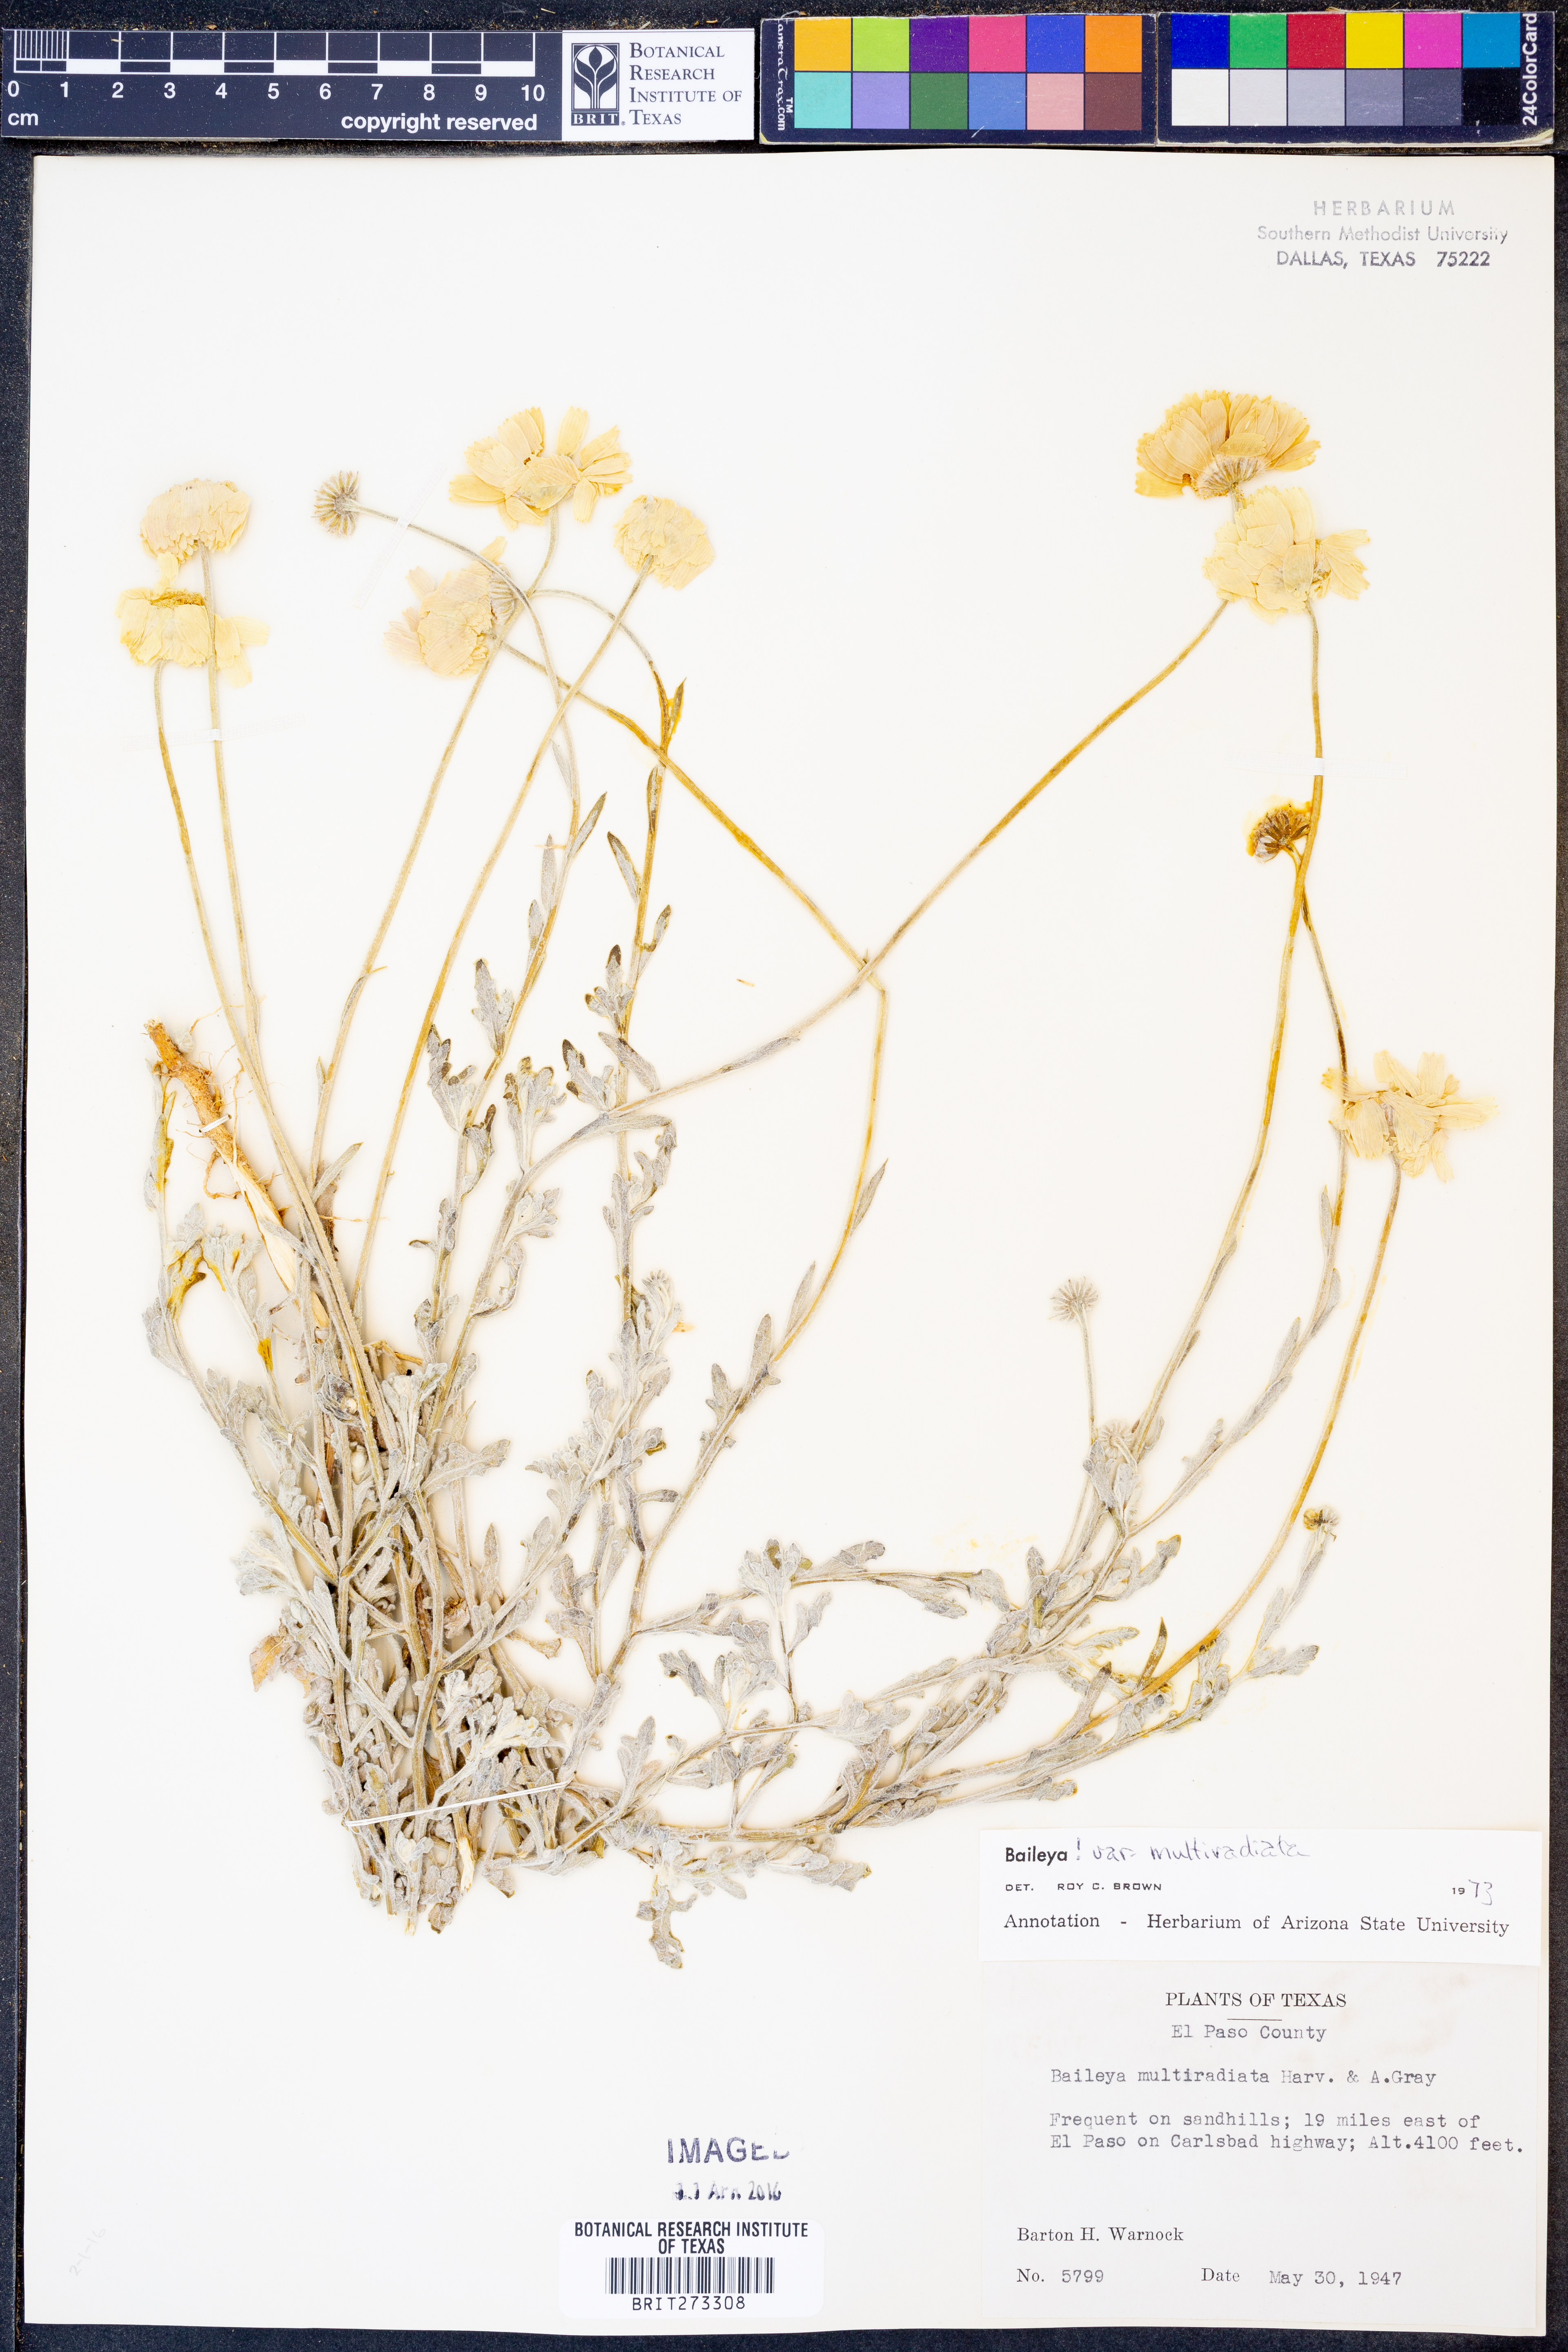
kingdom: Plantae
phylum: Tracheophyta
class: Magnoliopsida
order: Asterales
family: Asteraceae
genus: Baileya
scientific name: Baileya multiradiata
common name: Desert-marigold
